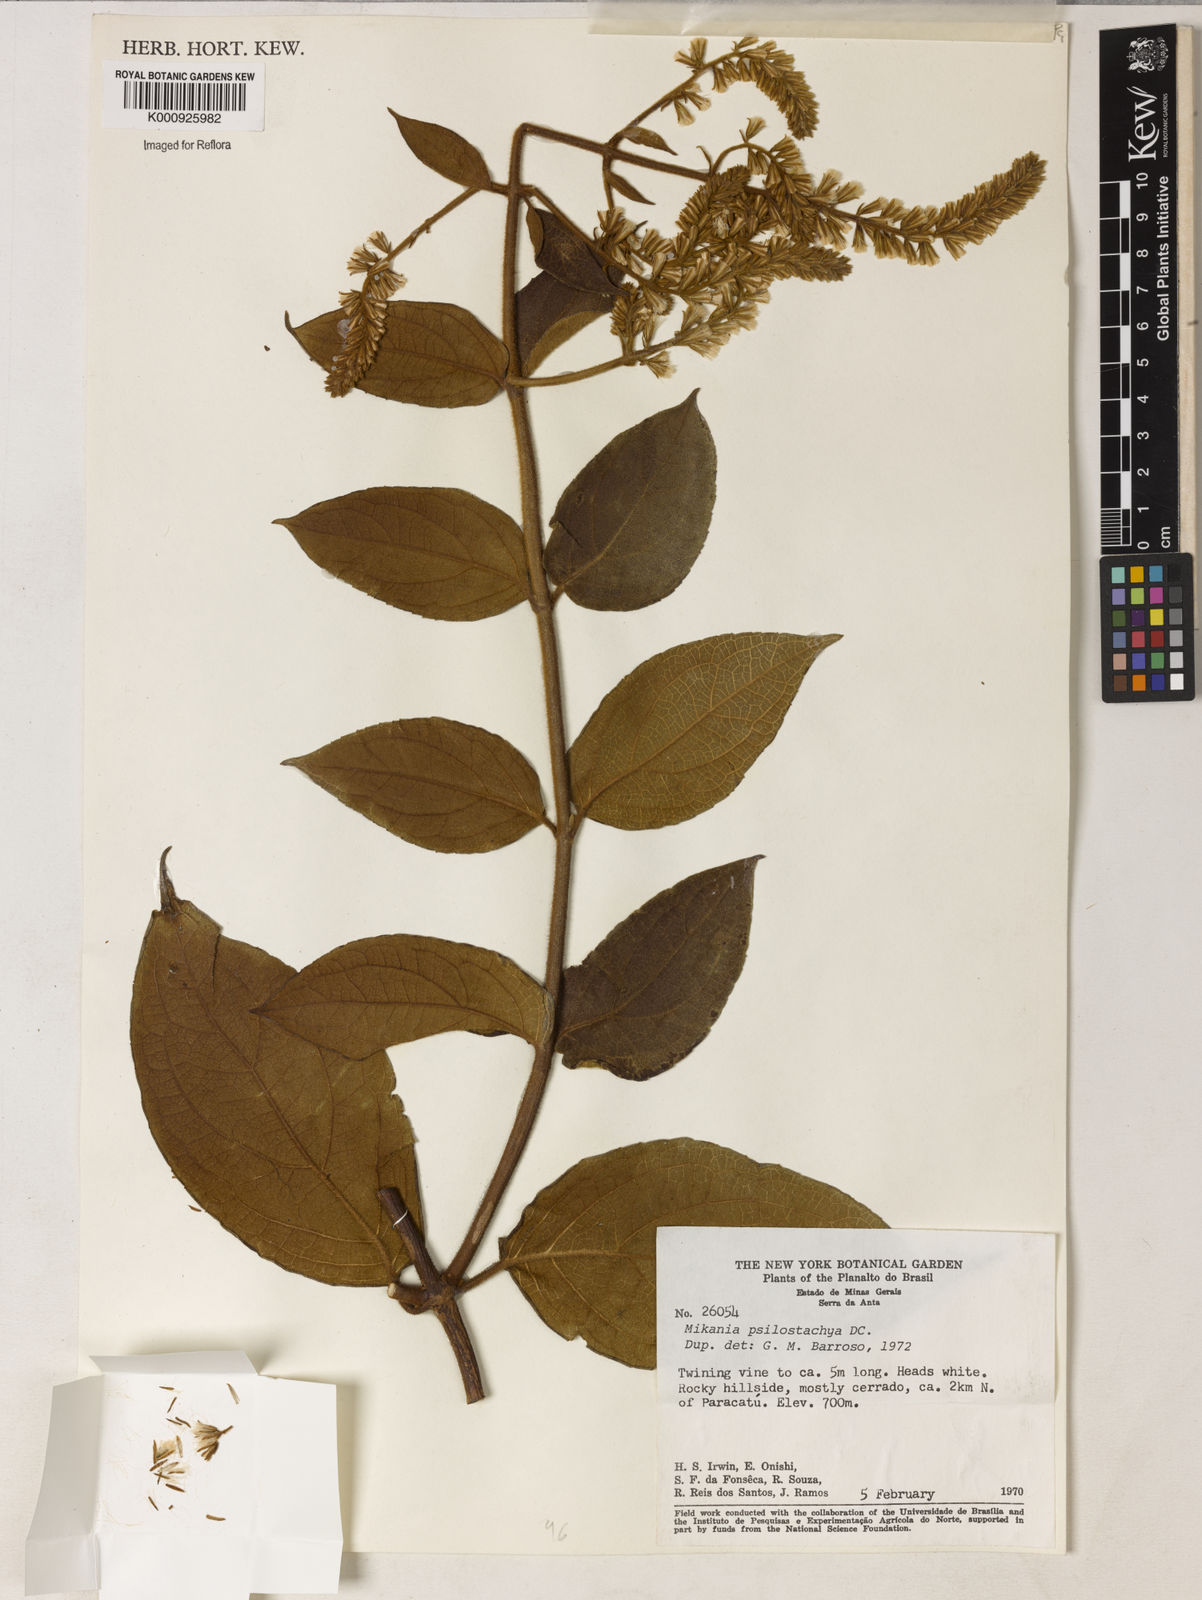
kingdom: Plantae
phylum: Tracheophyta
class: Magnoliopsida
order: Asterales
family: Asteraceae
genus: Mikania
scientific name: Mikania psilostachya
